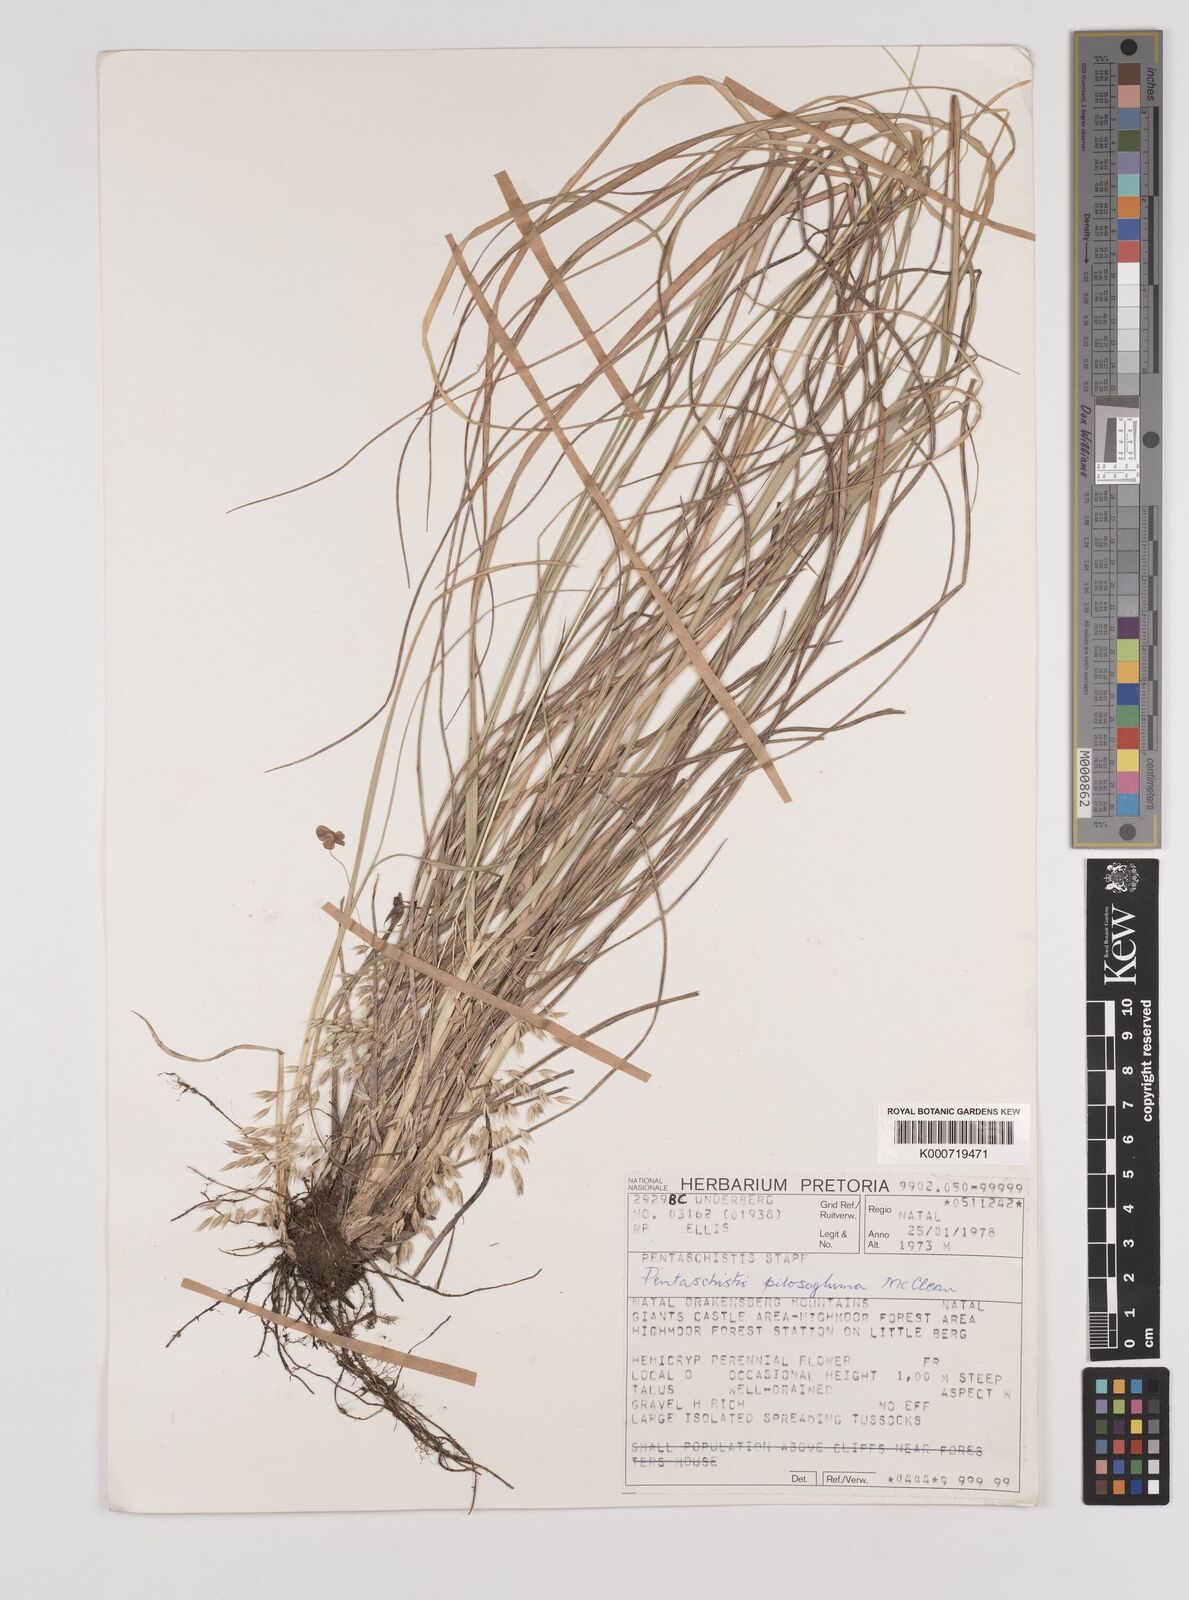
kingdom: Plantae
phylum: Tracheophyta
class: Liliopsida
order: Poales
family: Poaceae
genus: Pentameris
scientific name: Pentameris aurea
